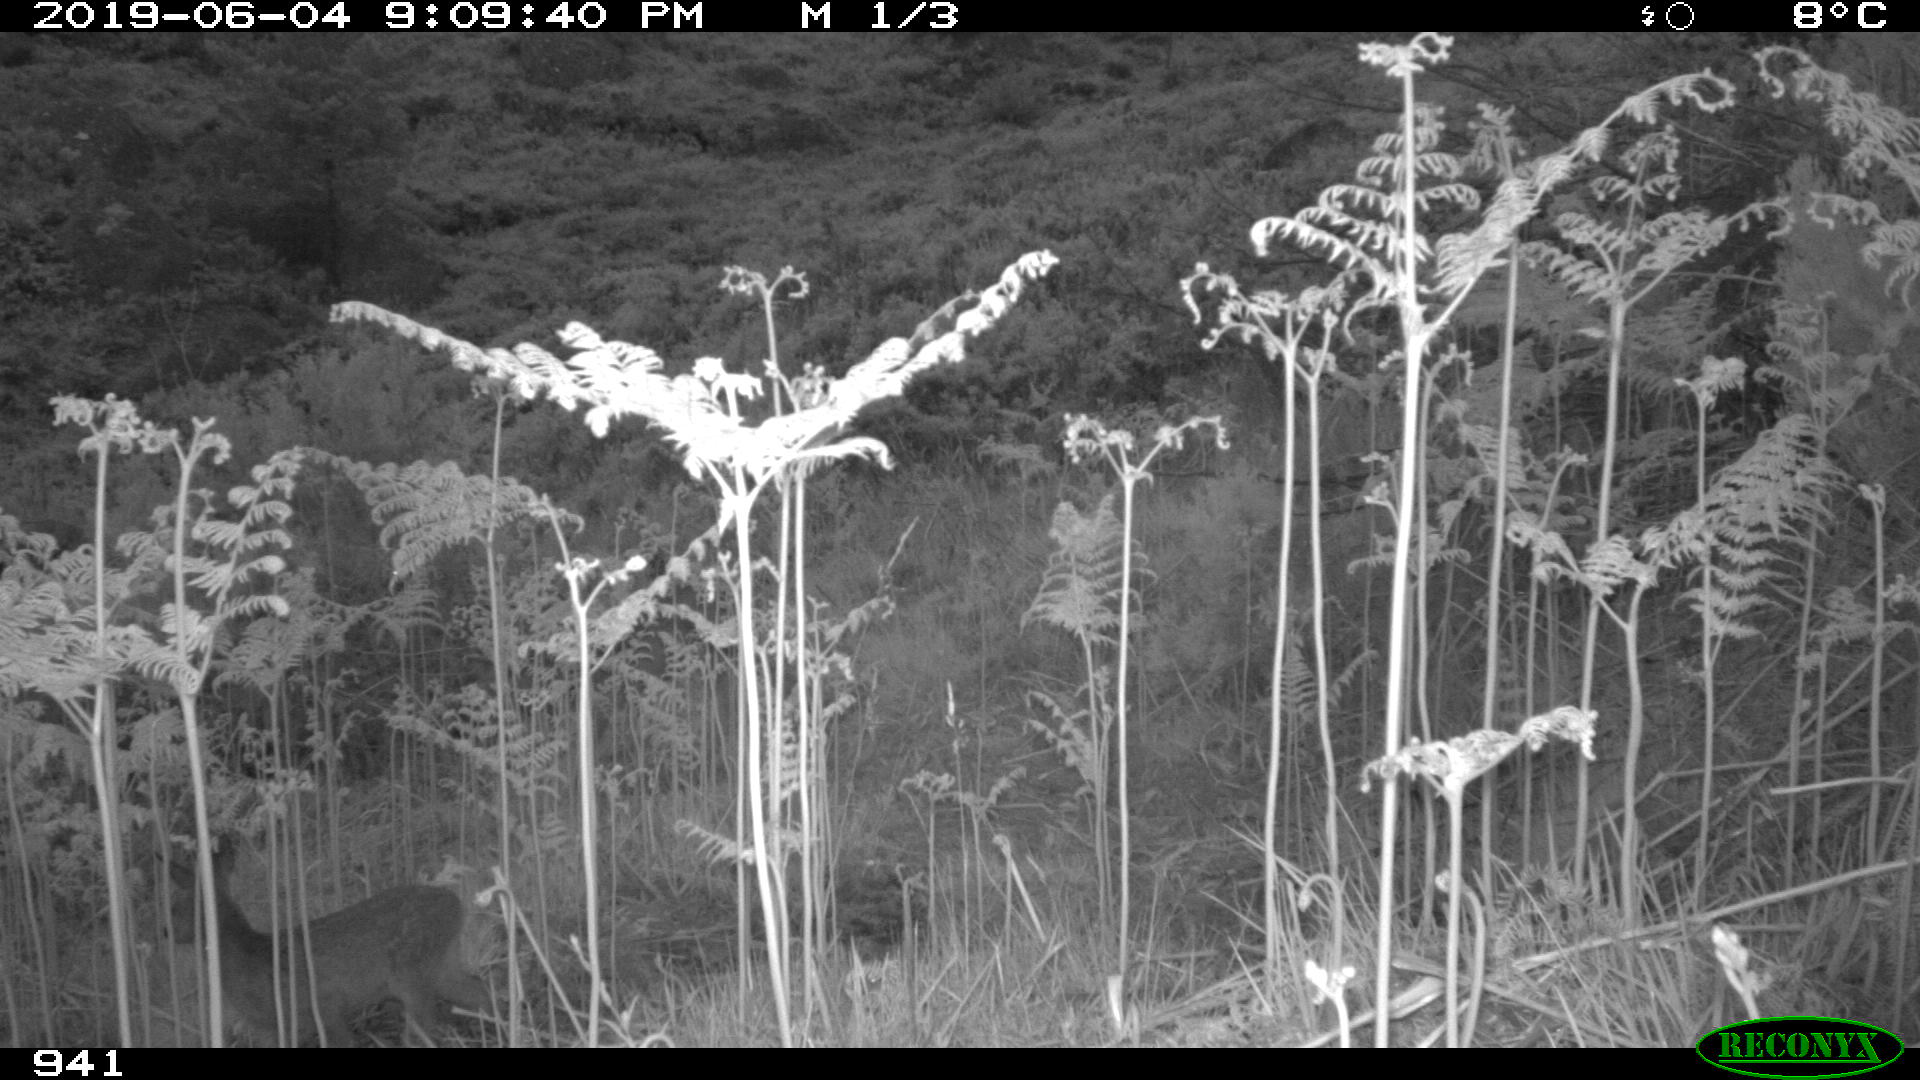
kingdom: Animalia
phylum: Chordata
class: Mammalia
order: Artiodactyla
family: Cervidae
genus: Capreolus
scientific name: Capreolus capreolus
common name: Western roe deer
